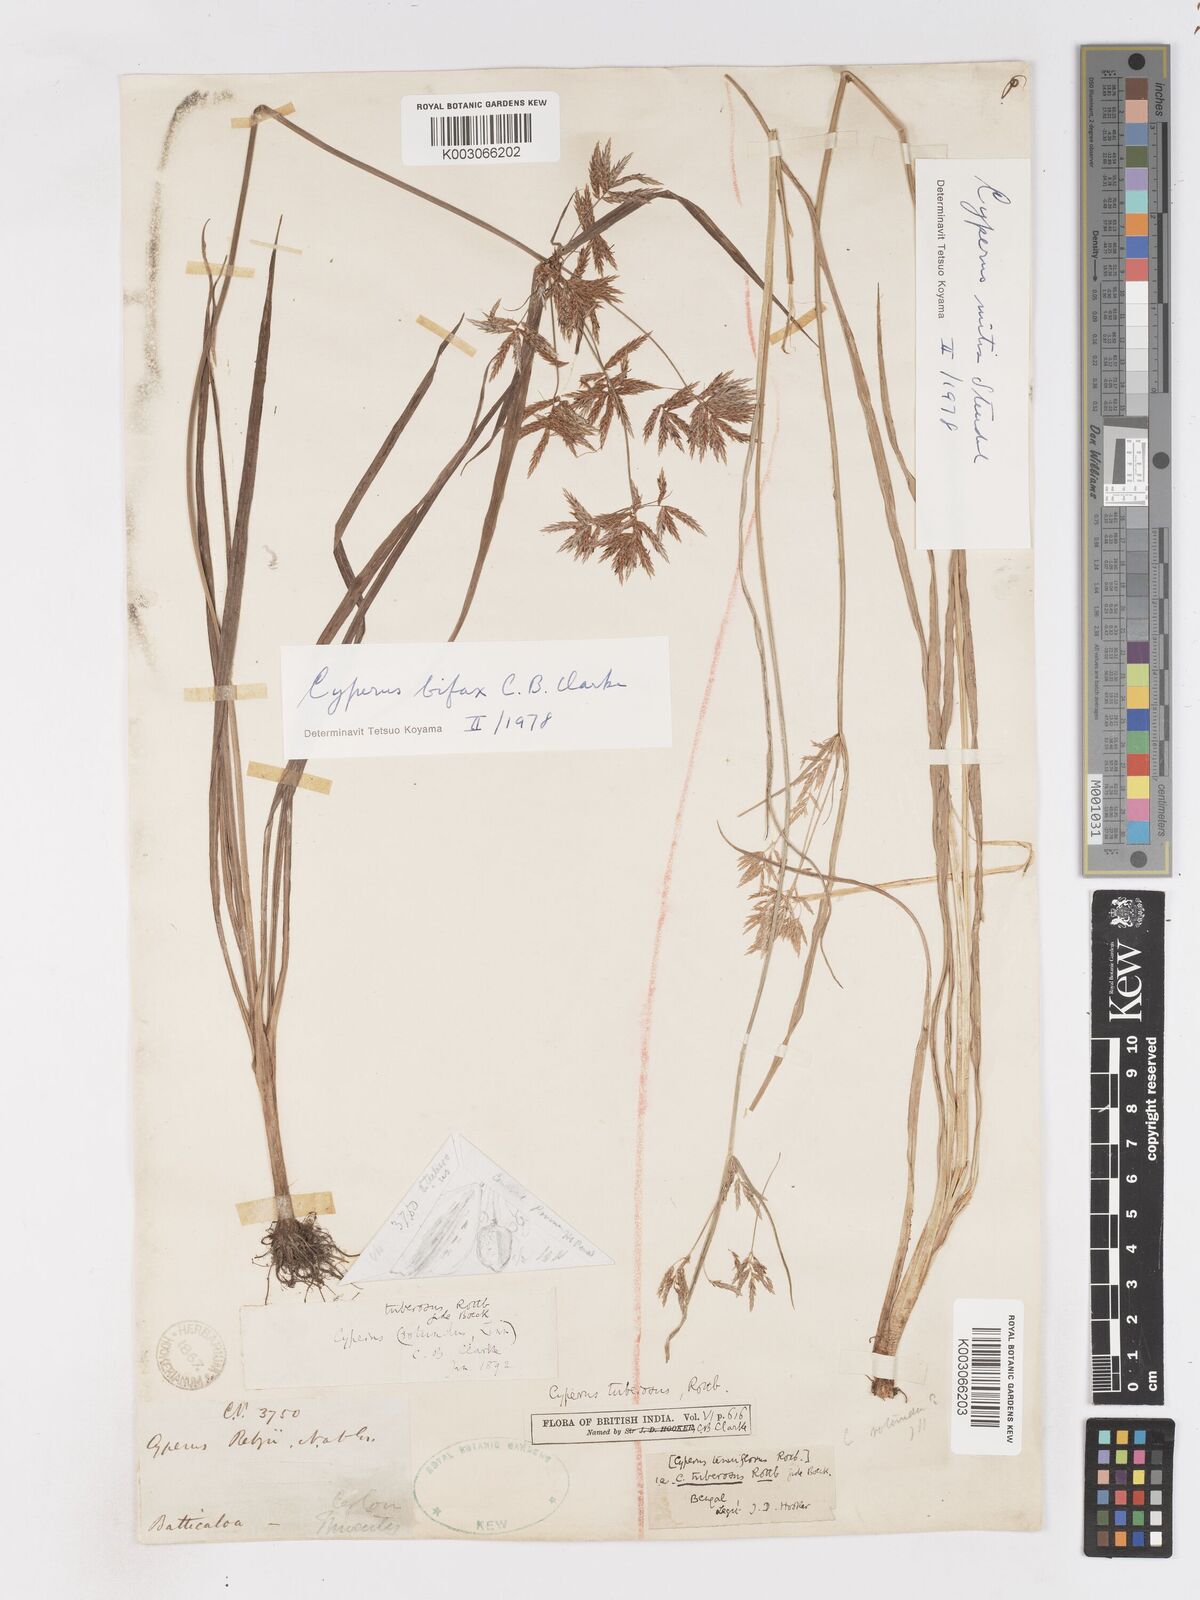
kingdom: Plantae
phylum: Tracheophyta
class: Liliopsida
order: Poales
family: Cyperaceae
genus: Cyperus
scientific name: Cyperus bifax
